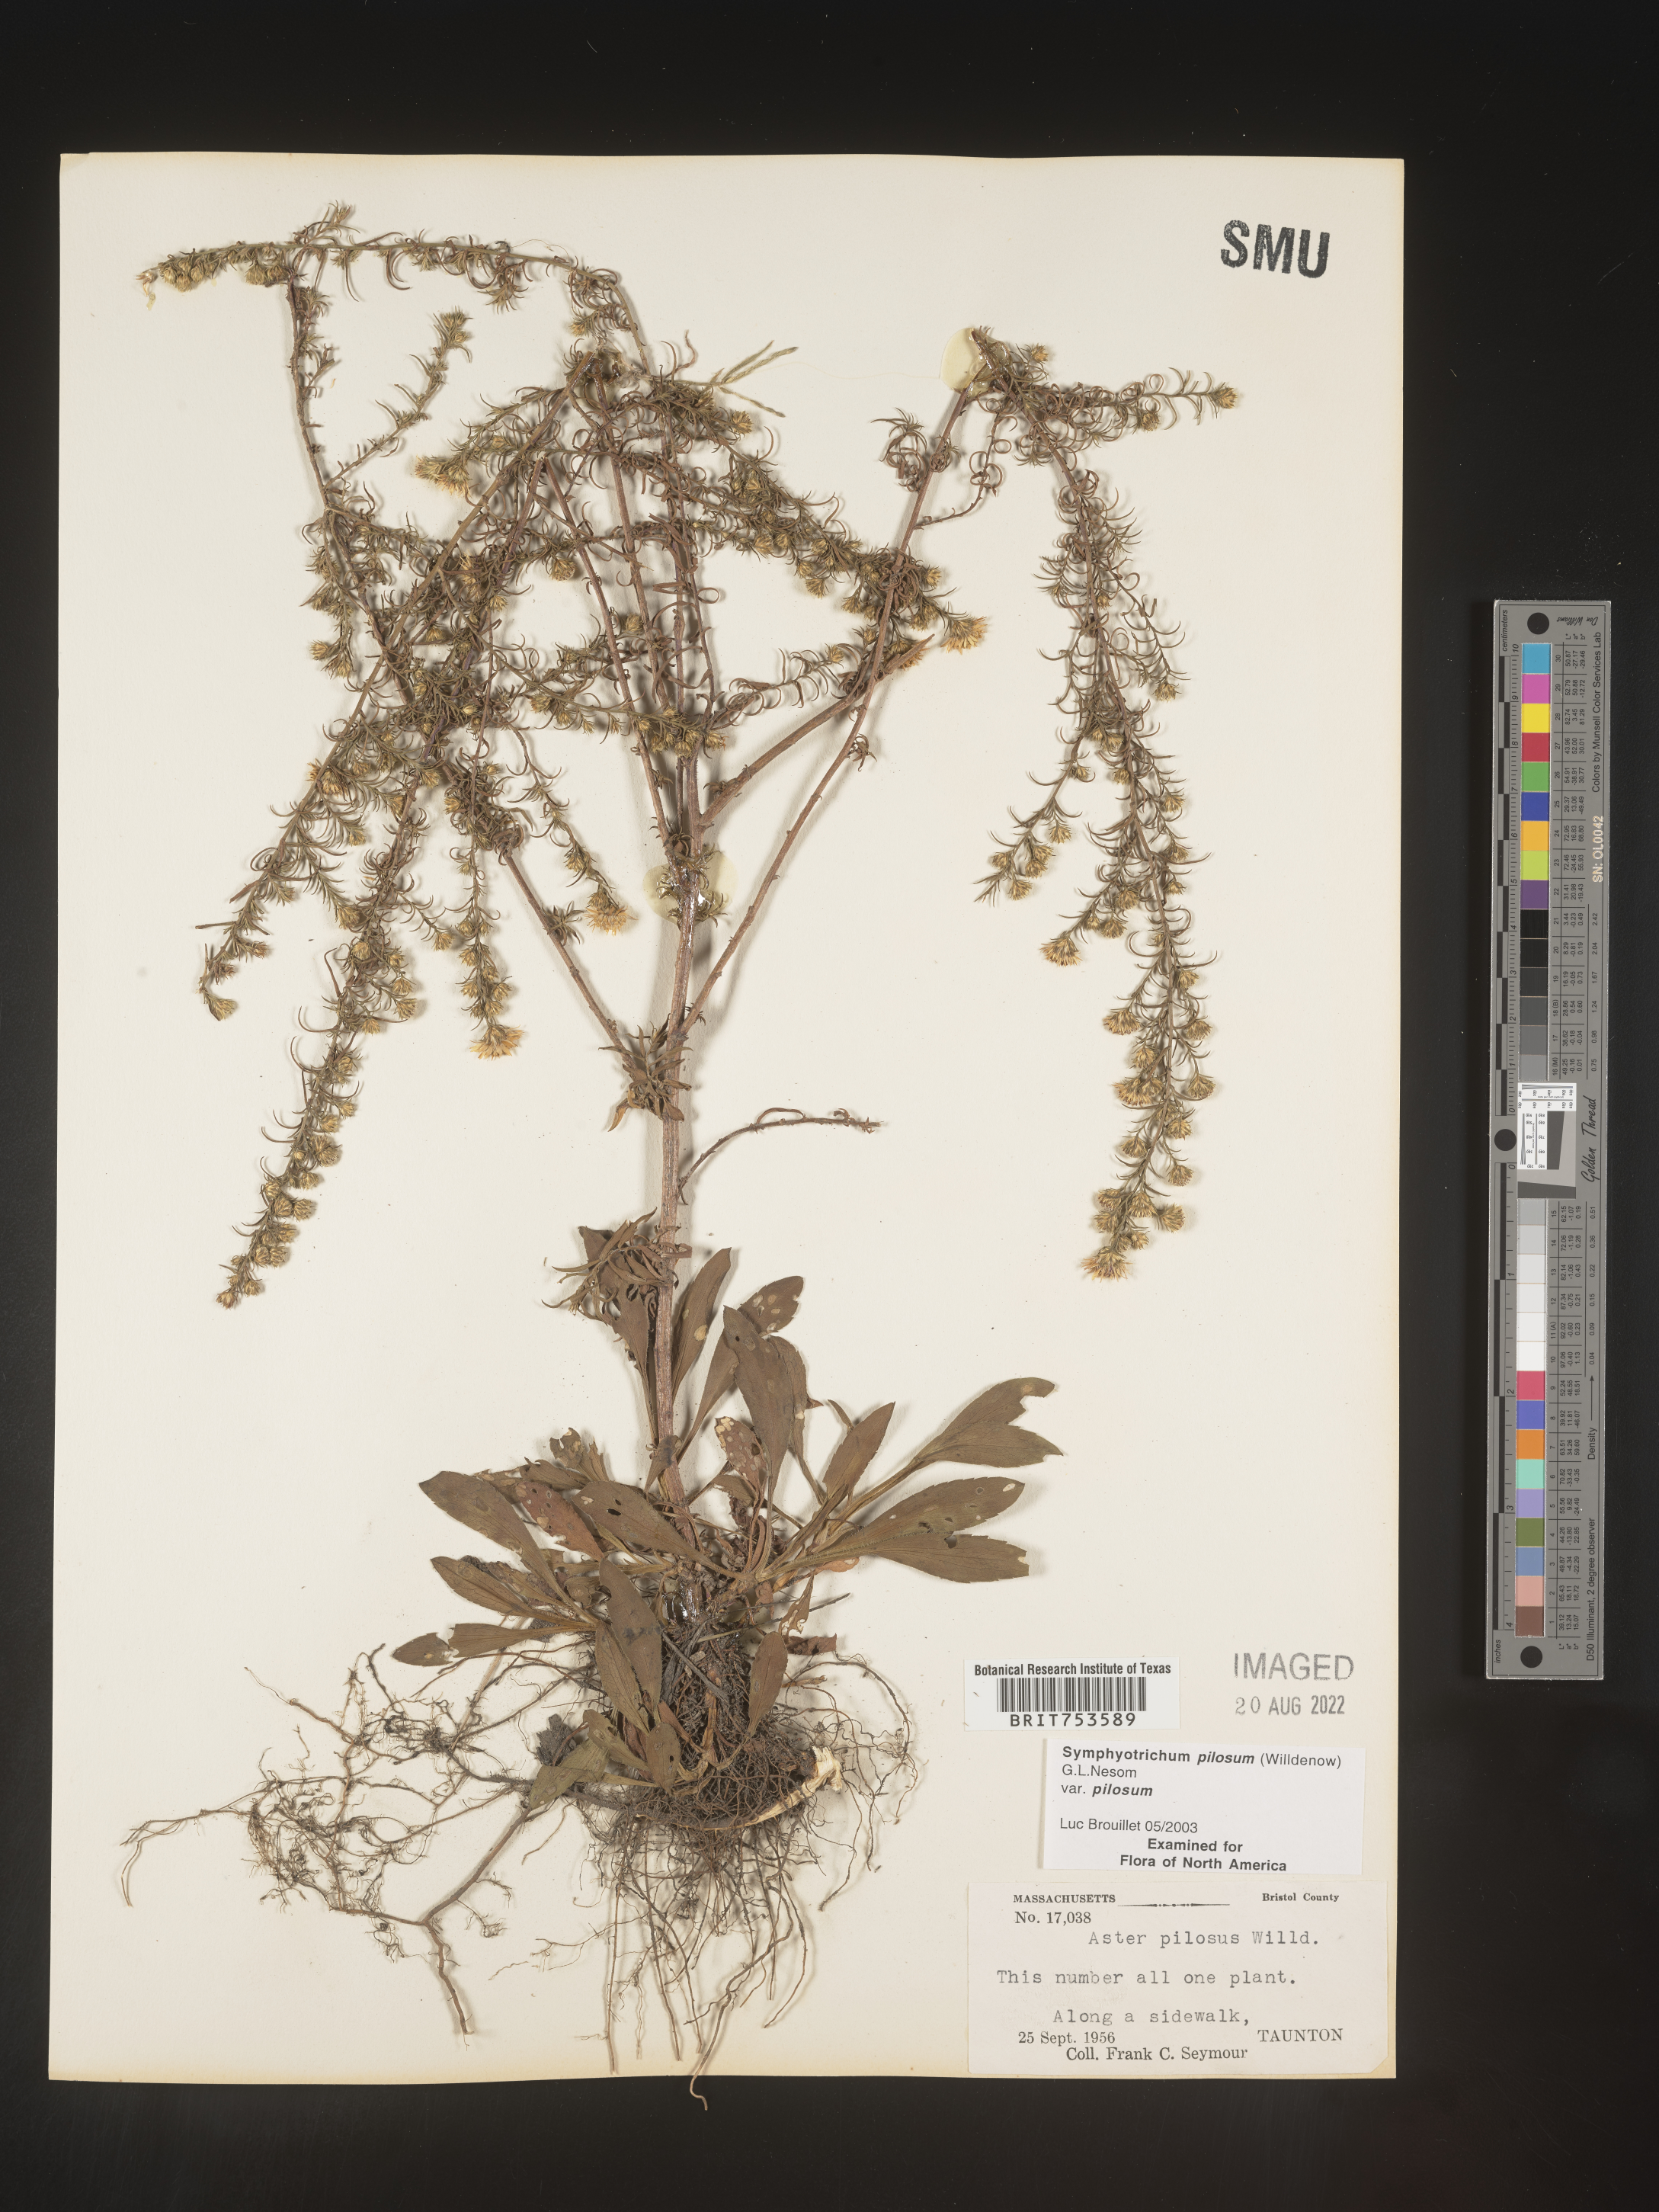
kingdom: Plantae
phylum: Tracheophyta
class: Magnoliopsida
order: Asterales
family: Asteraceae
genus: Symphyotrichum
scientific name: Symphyotrichum pilosum
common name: Awl aster
